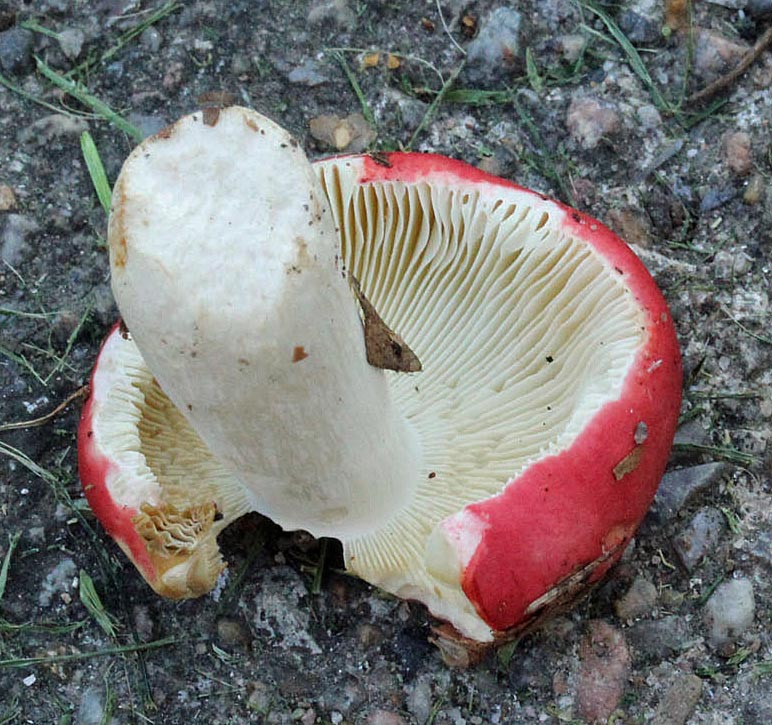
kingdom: Fungi
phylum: Basidiomycota
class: Agaricomycetes
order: Russulales
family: Russulaceae
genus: Russula
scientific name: Russula nobilis
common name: lille gift-skørhat
